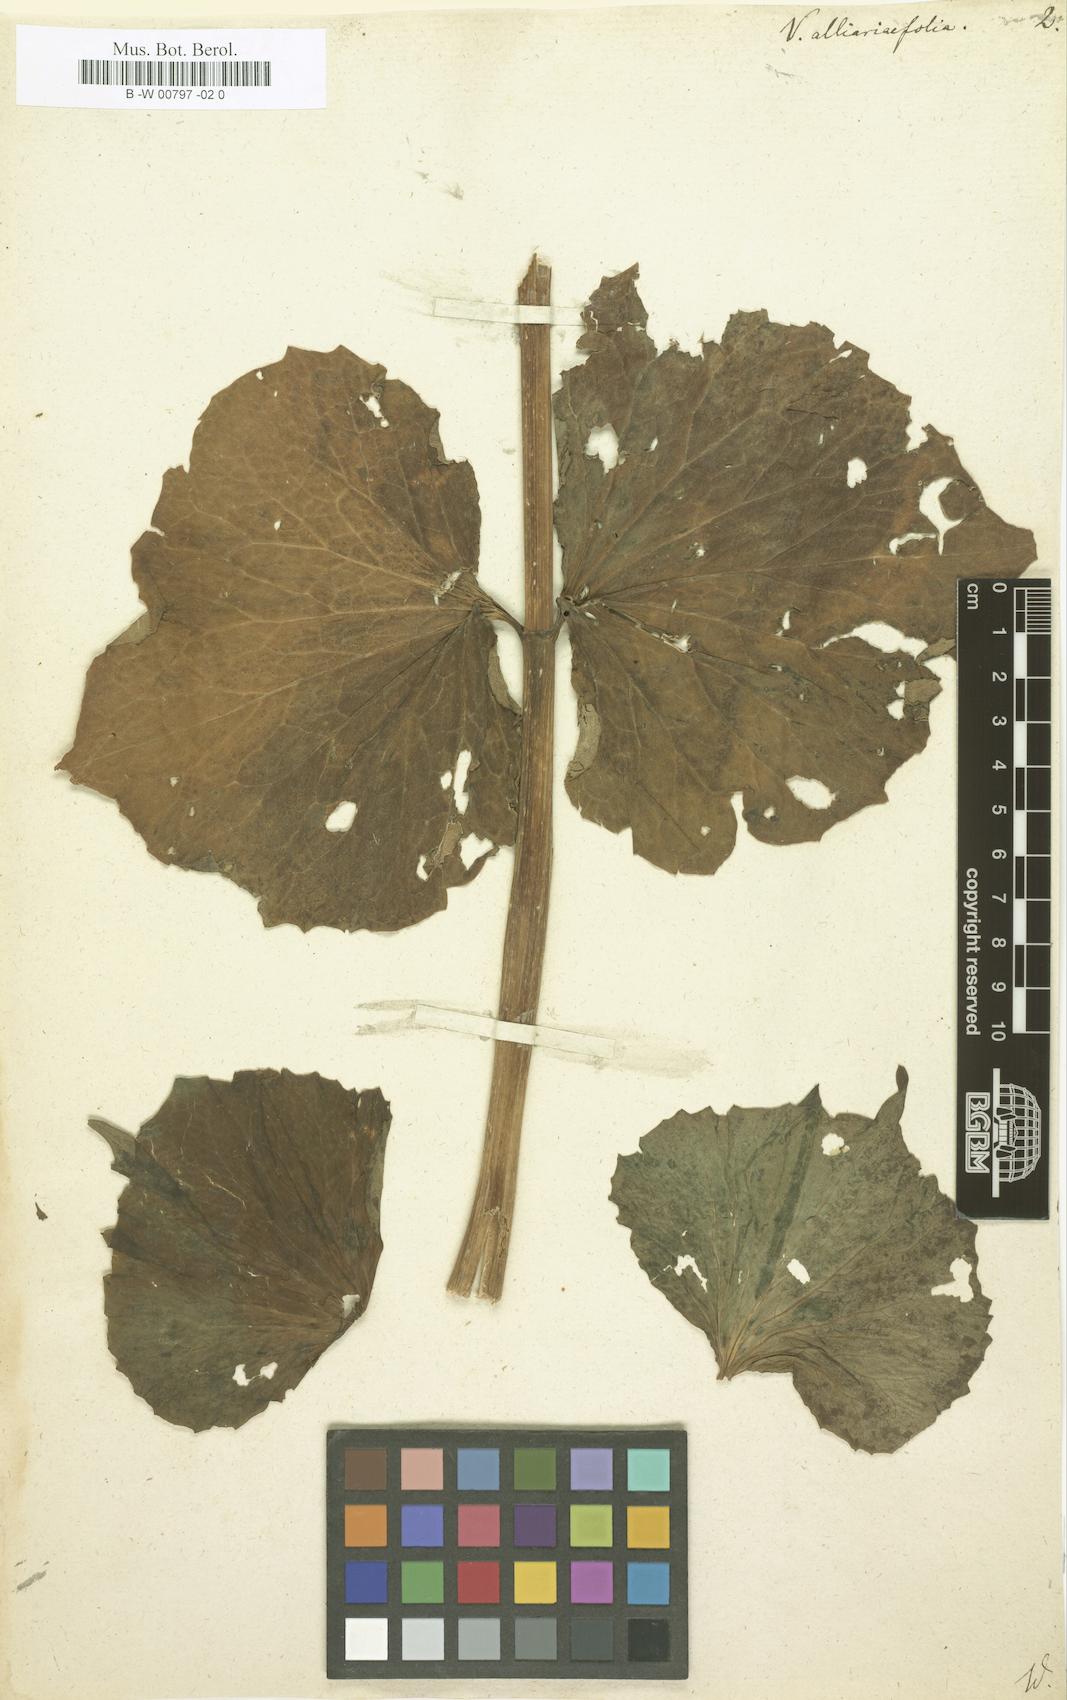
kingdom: Plantae
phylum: Tracheophyta
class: Magnoliopsida
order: Dipsacales
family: Caprifoliaceae
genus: Valeriana
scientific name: Valeriana alliariifolia
